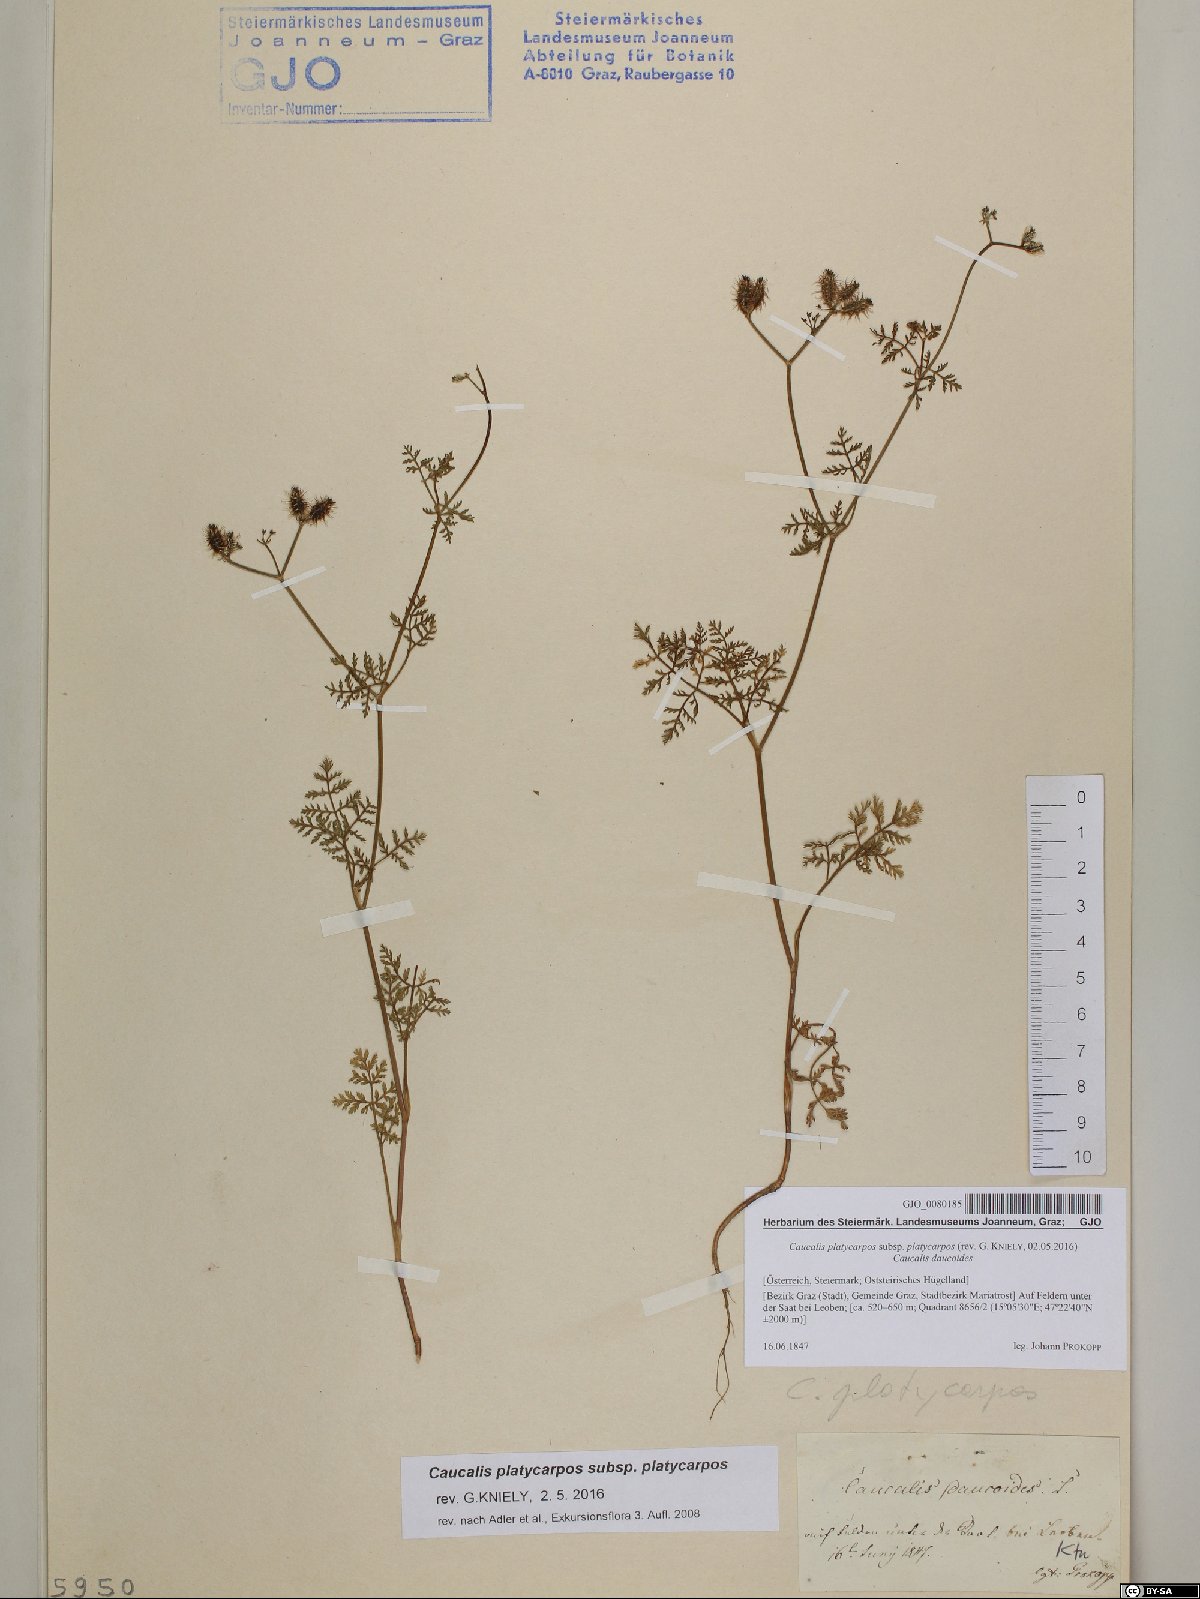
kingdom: Plantae
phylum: Tracheophyta
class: Magnoliopsida
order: Apiales
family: Apiaceae
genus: Caucalis
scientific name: Caucalis platycarpos
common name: Small bur-parsley
